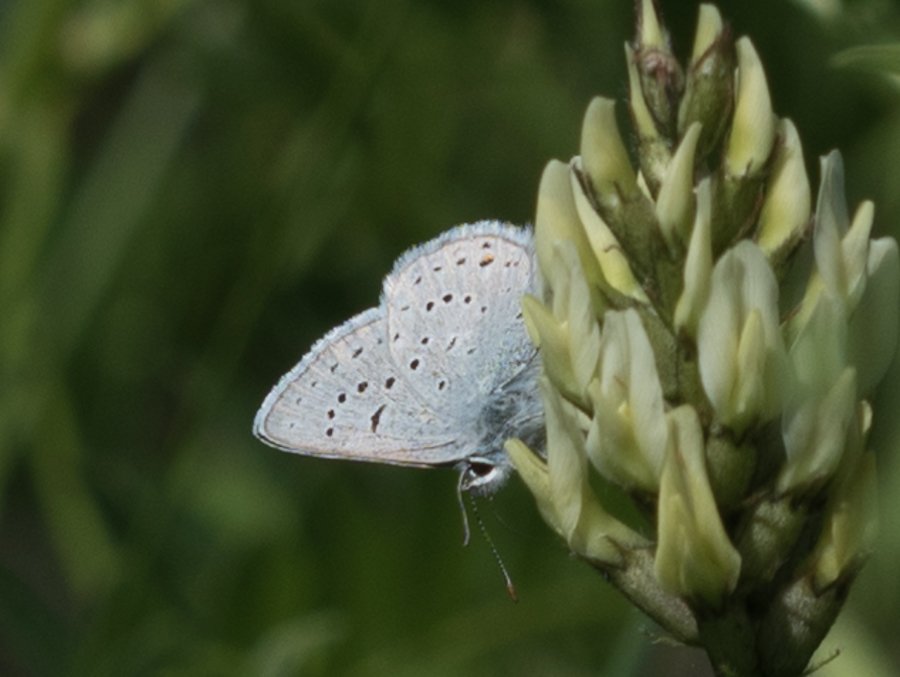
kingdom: Animalia
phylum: Arthropoda
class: Insecta
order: Lepidoptera
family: Lycaenidae
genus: Plebejus
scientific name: Plebejus saepiolus
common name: Greenish Blue
